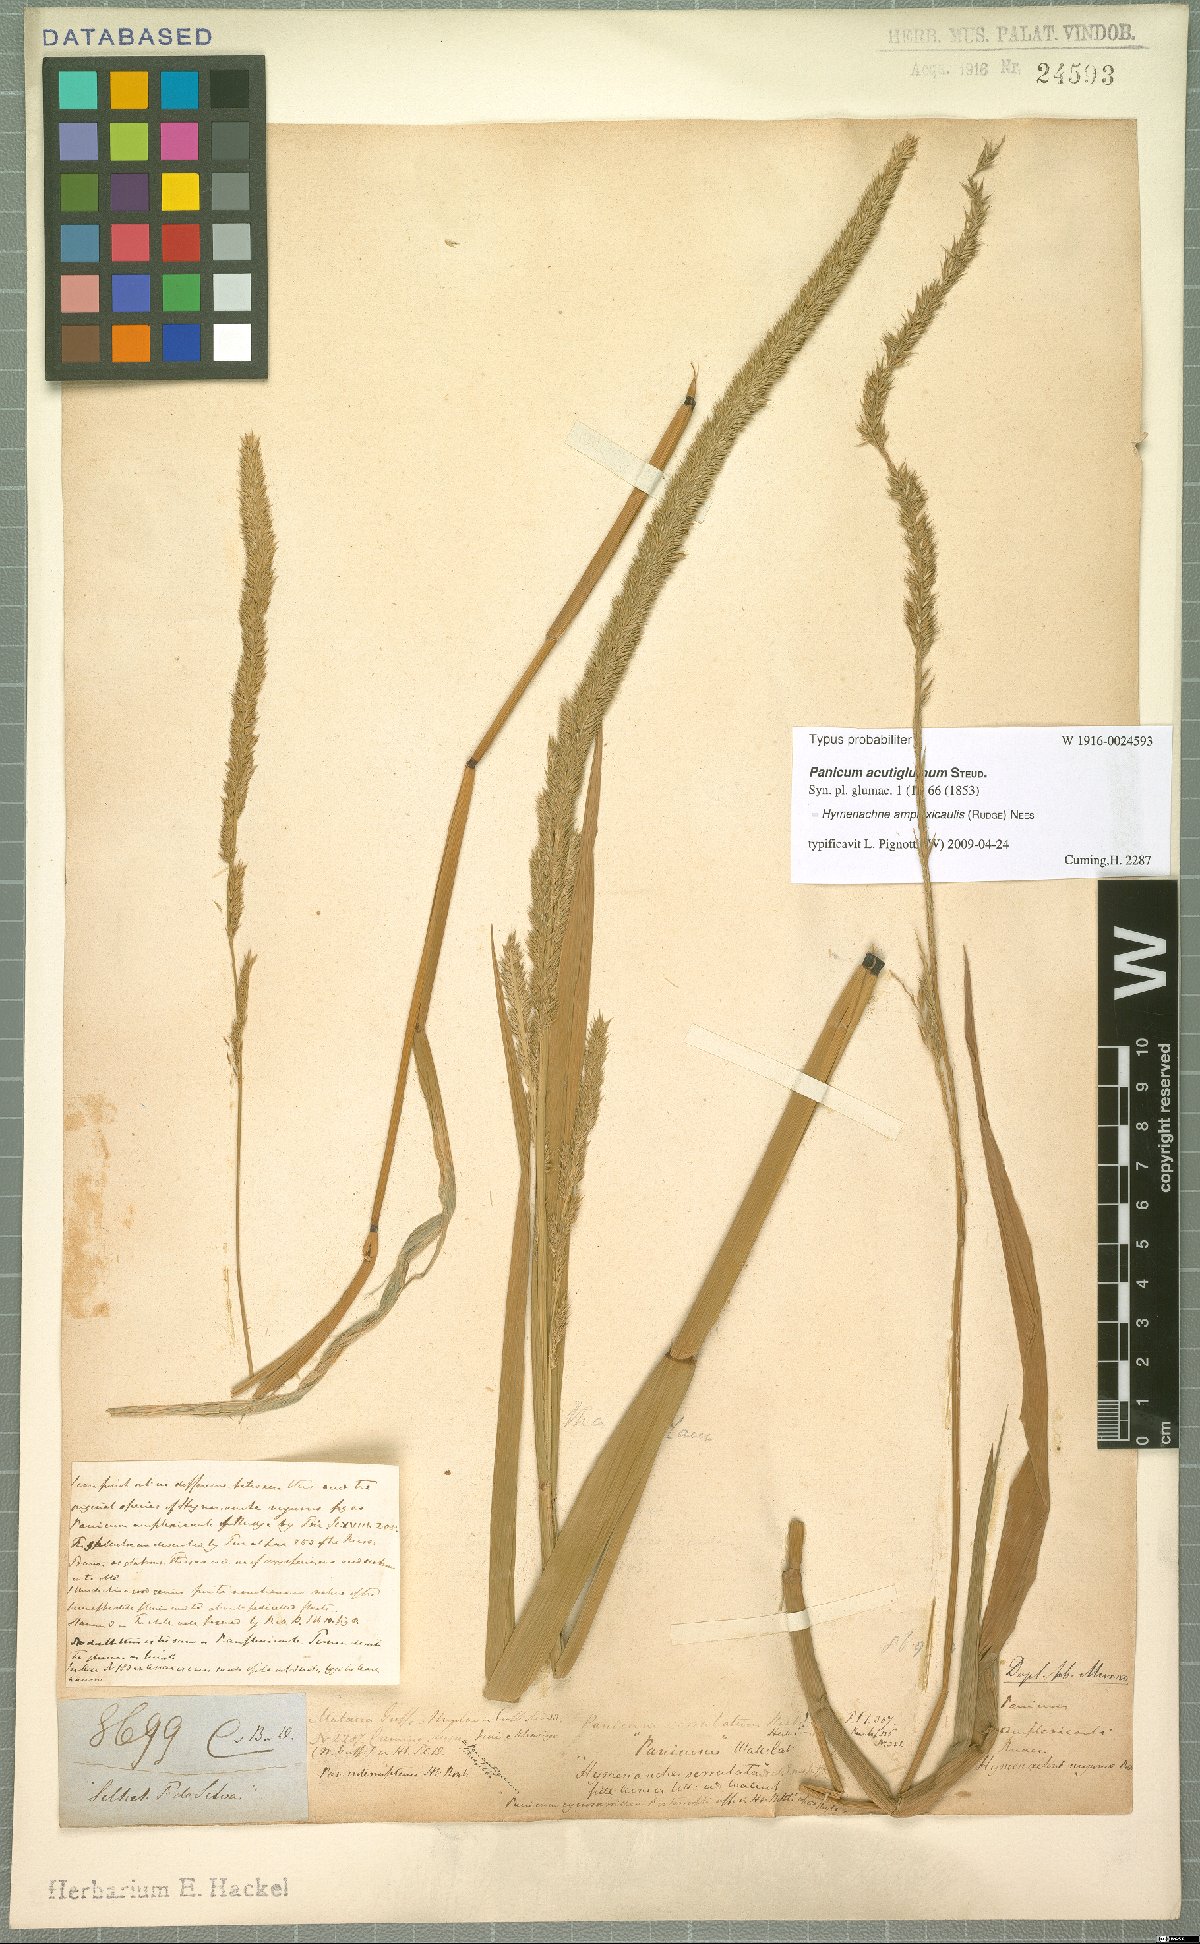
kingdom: Plantae
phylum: Tracheophyta
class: Liliopsida
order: Poales
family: Poaceae
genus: Hymenachne
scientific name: Hymenachne amplexicaulis
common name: Olive hymenachne
